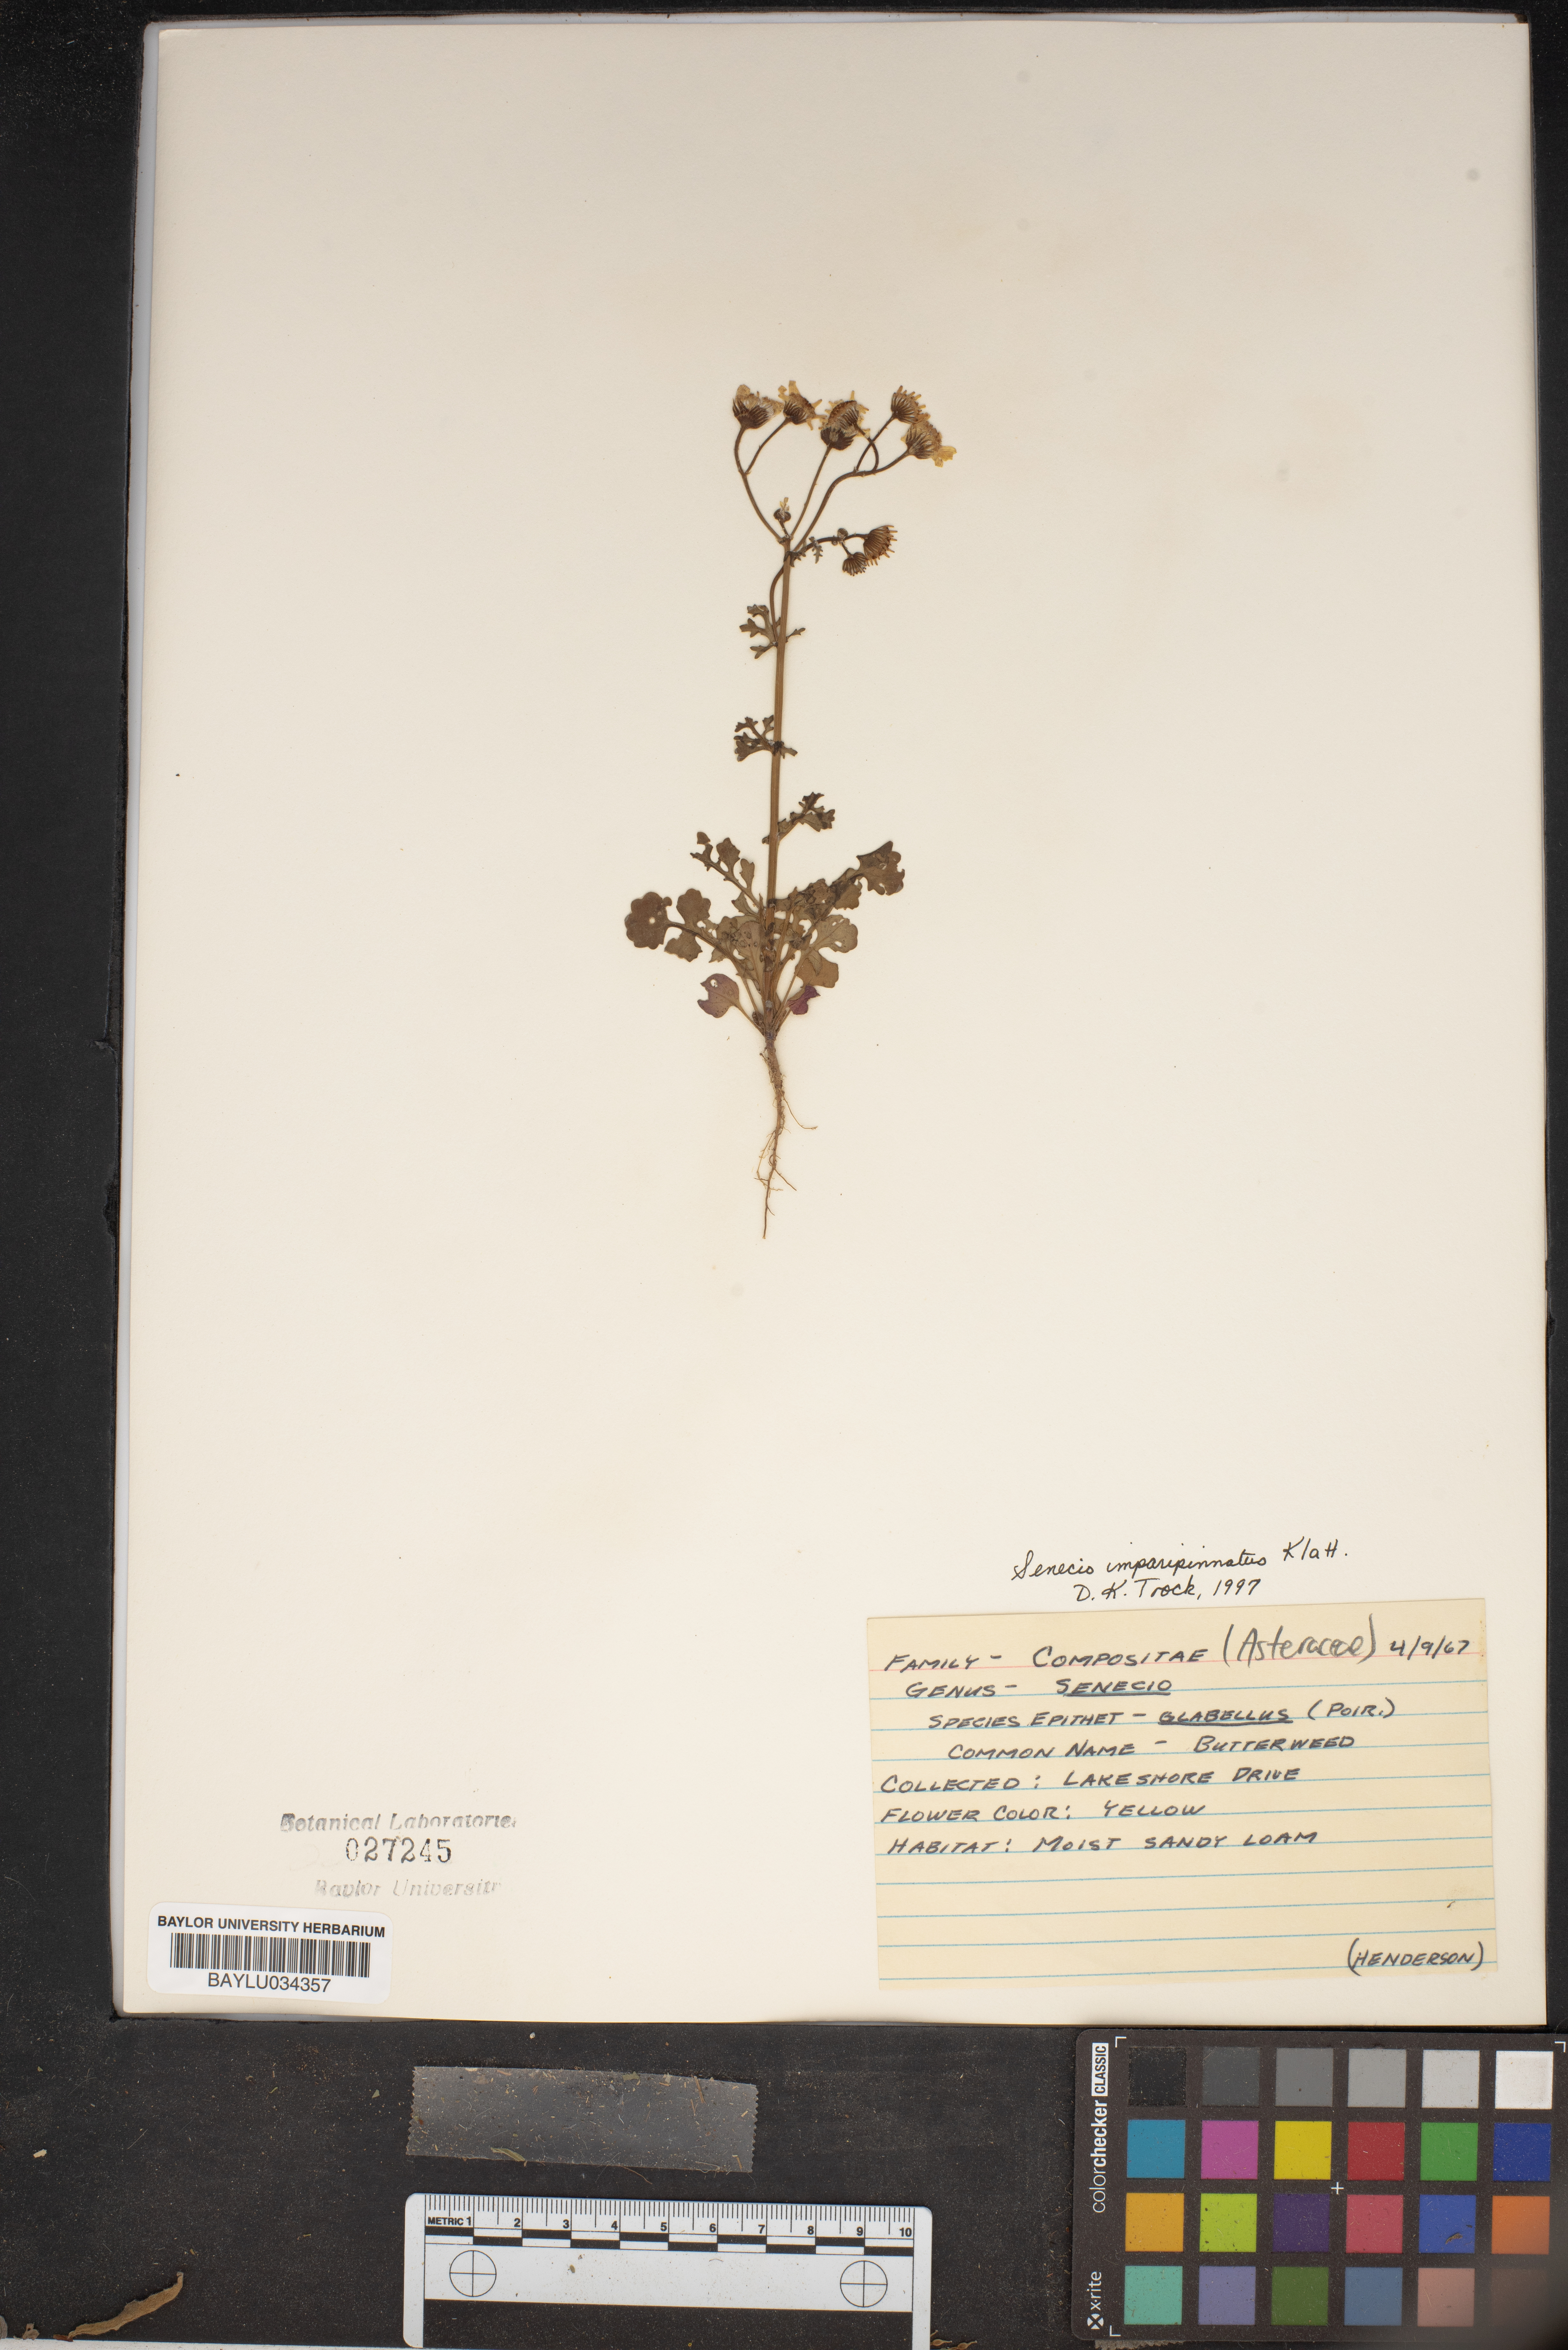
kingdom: Plantae
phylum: Tracheophyta
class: Magnoliopsida
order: Asterales
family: Asteraceae
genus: Tephroseris
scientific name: Tephroseris praticola
